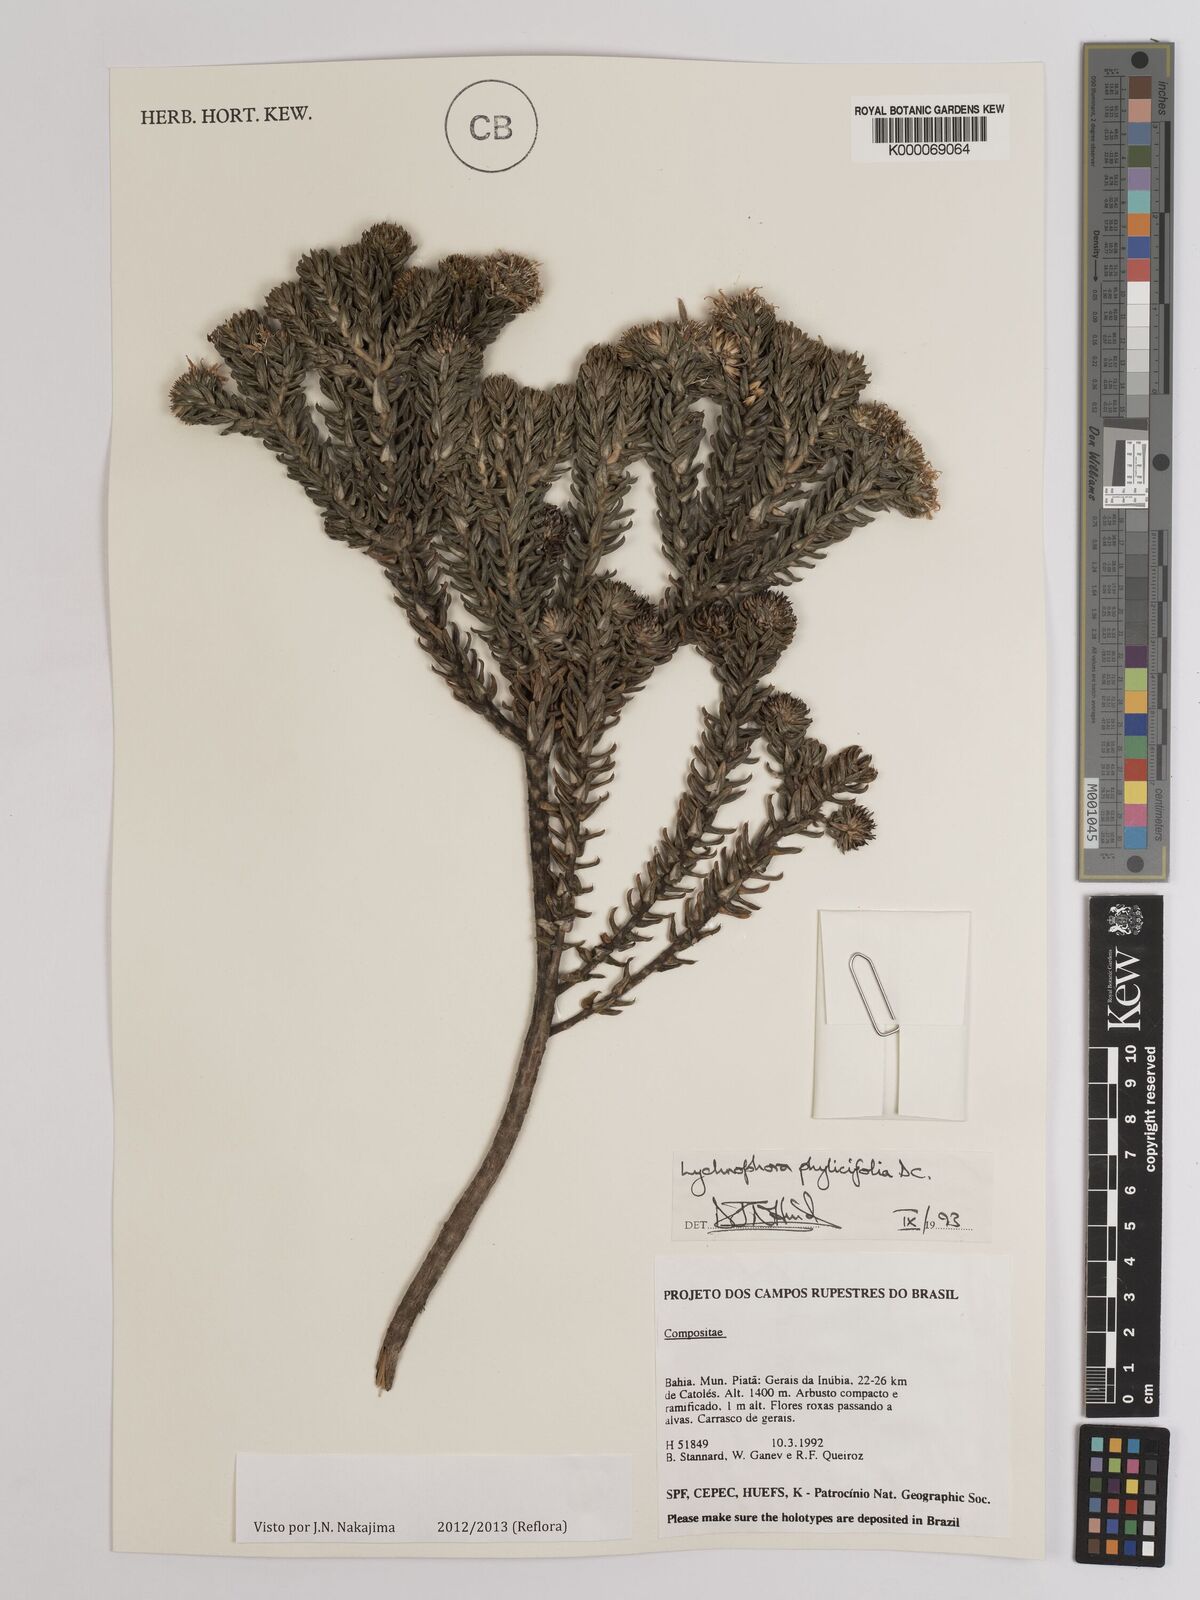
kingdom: Plantae
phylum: Tracheophyta
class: Magnoliopsida
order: Asterales
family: Asteraceae
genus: Lychnophora
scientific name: Lychnophora phylicifolia
